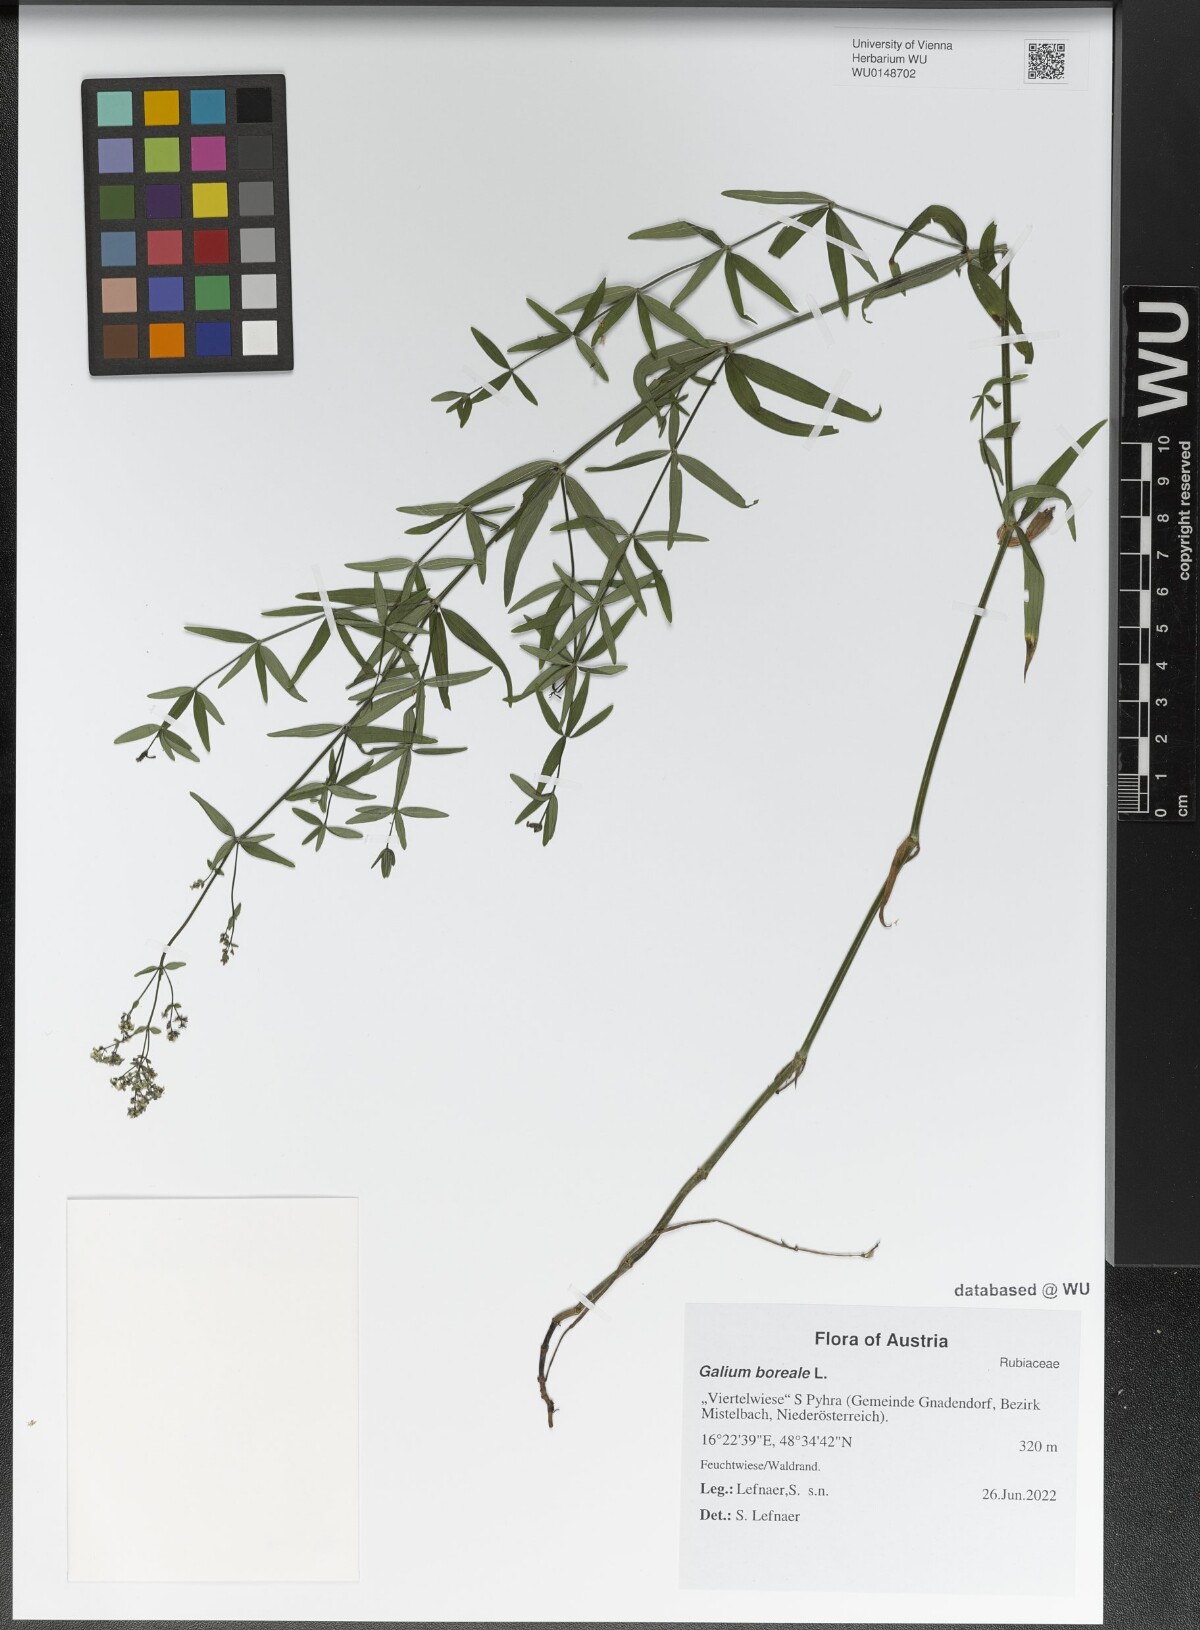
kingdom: Plantae
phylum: Tracheophyta
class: Magnoliopsida
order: Gentianales
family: Rubiaceae
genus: Galium
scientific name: Galium boreale
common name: Northern bedstraw
